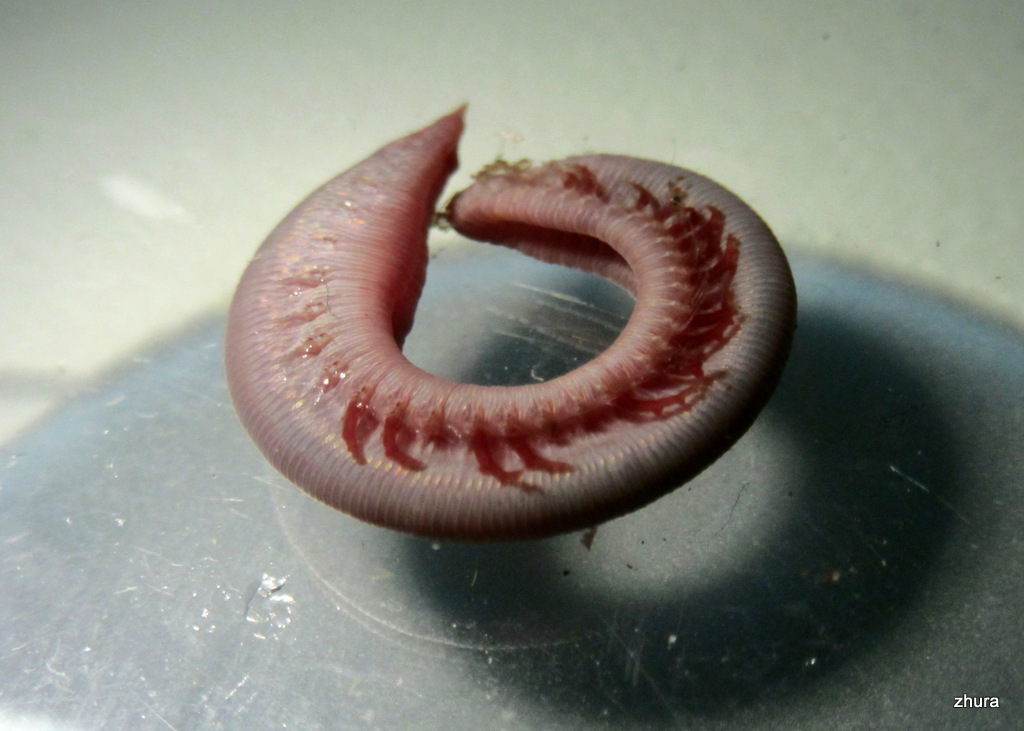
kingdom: Animalia
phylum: Annelida
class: Polychaeta
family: Opheliidae
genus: Ophelia
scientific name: Ophelia limacina
